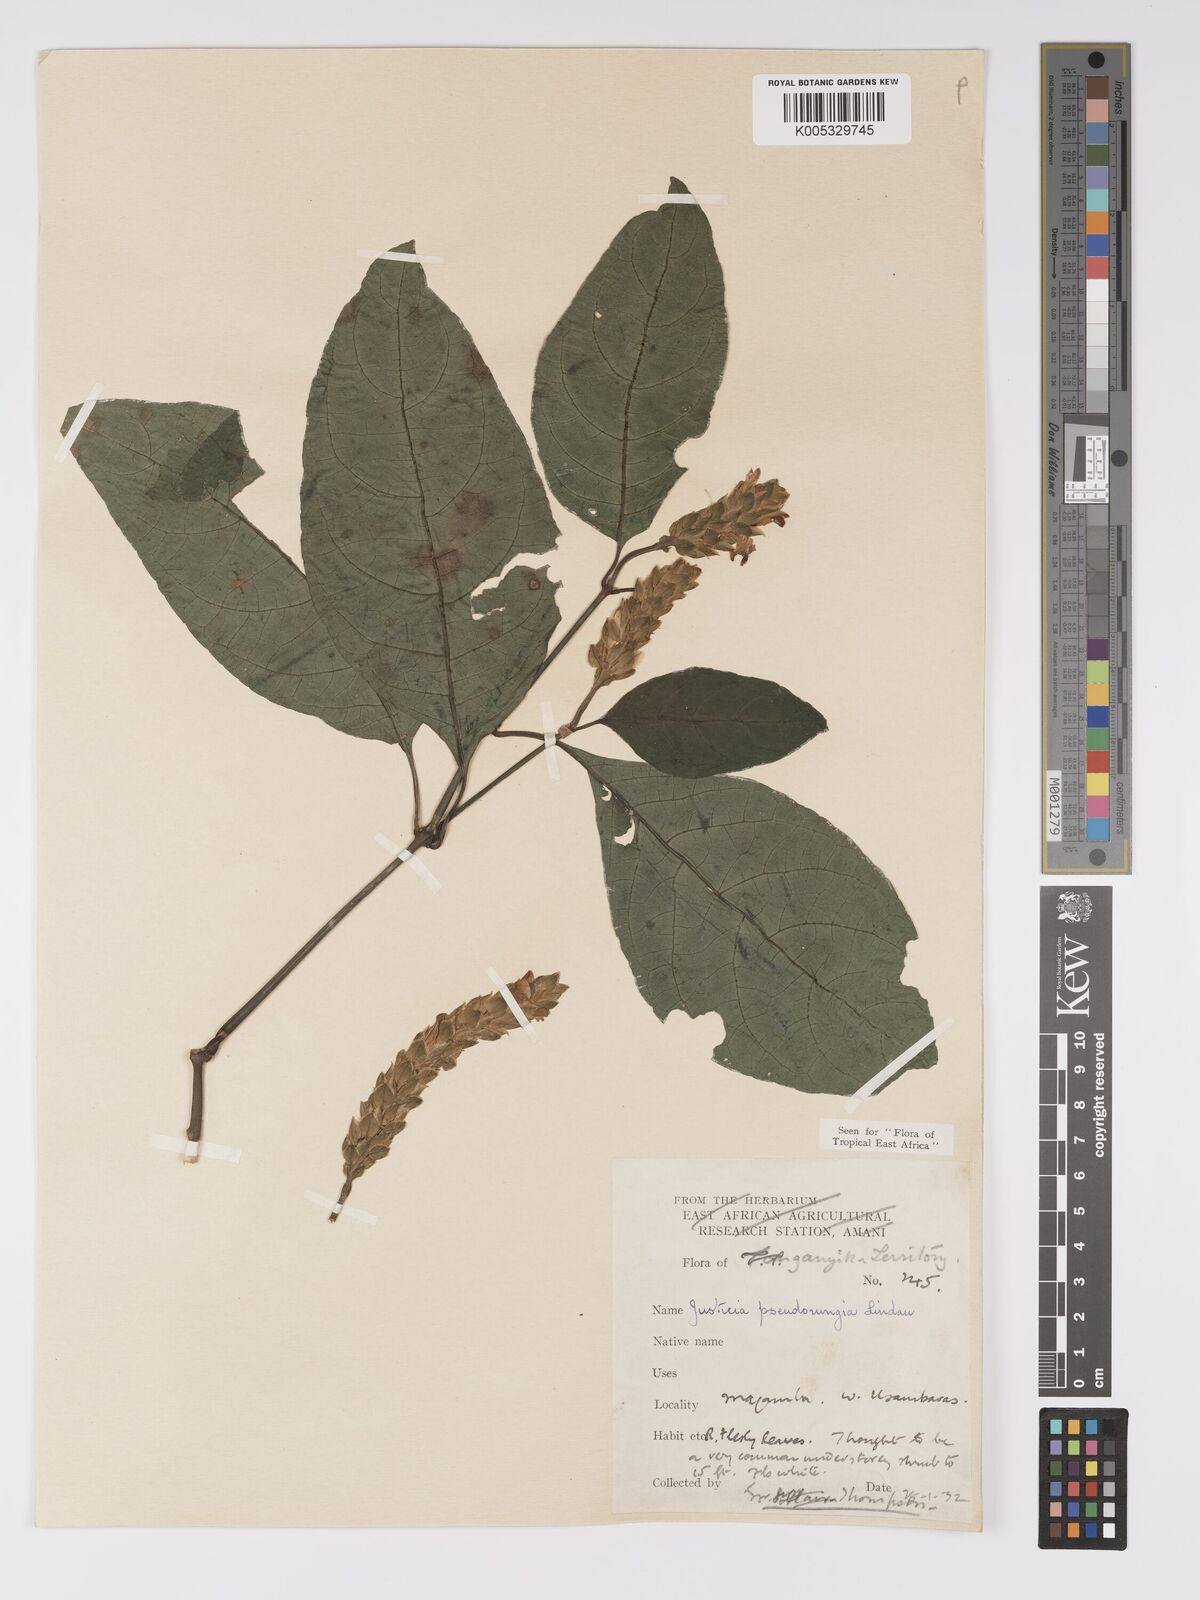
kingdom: Plantae
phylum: Tracheophyta
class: Magnoliopsida
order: Lamiales
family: Acanthaceae
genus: Justicia
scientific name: Justicia pseudorungia
